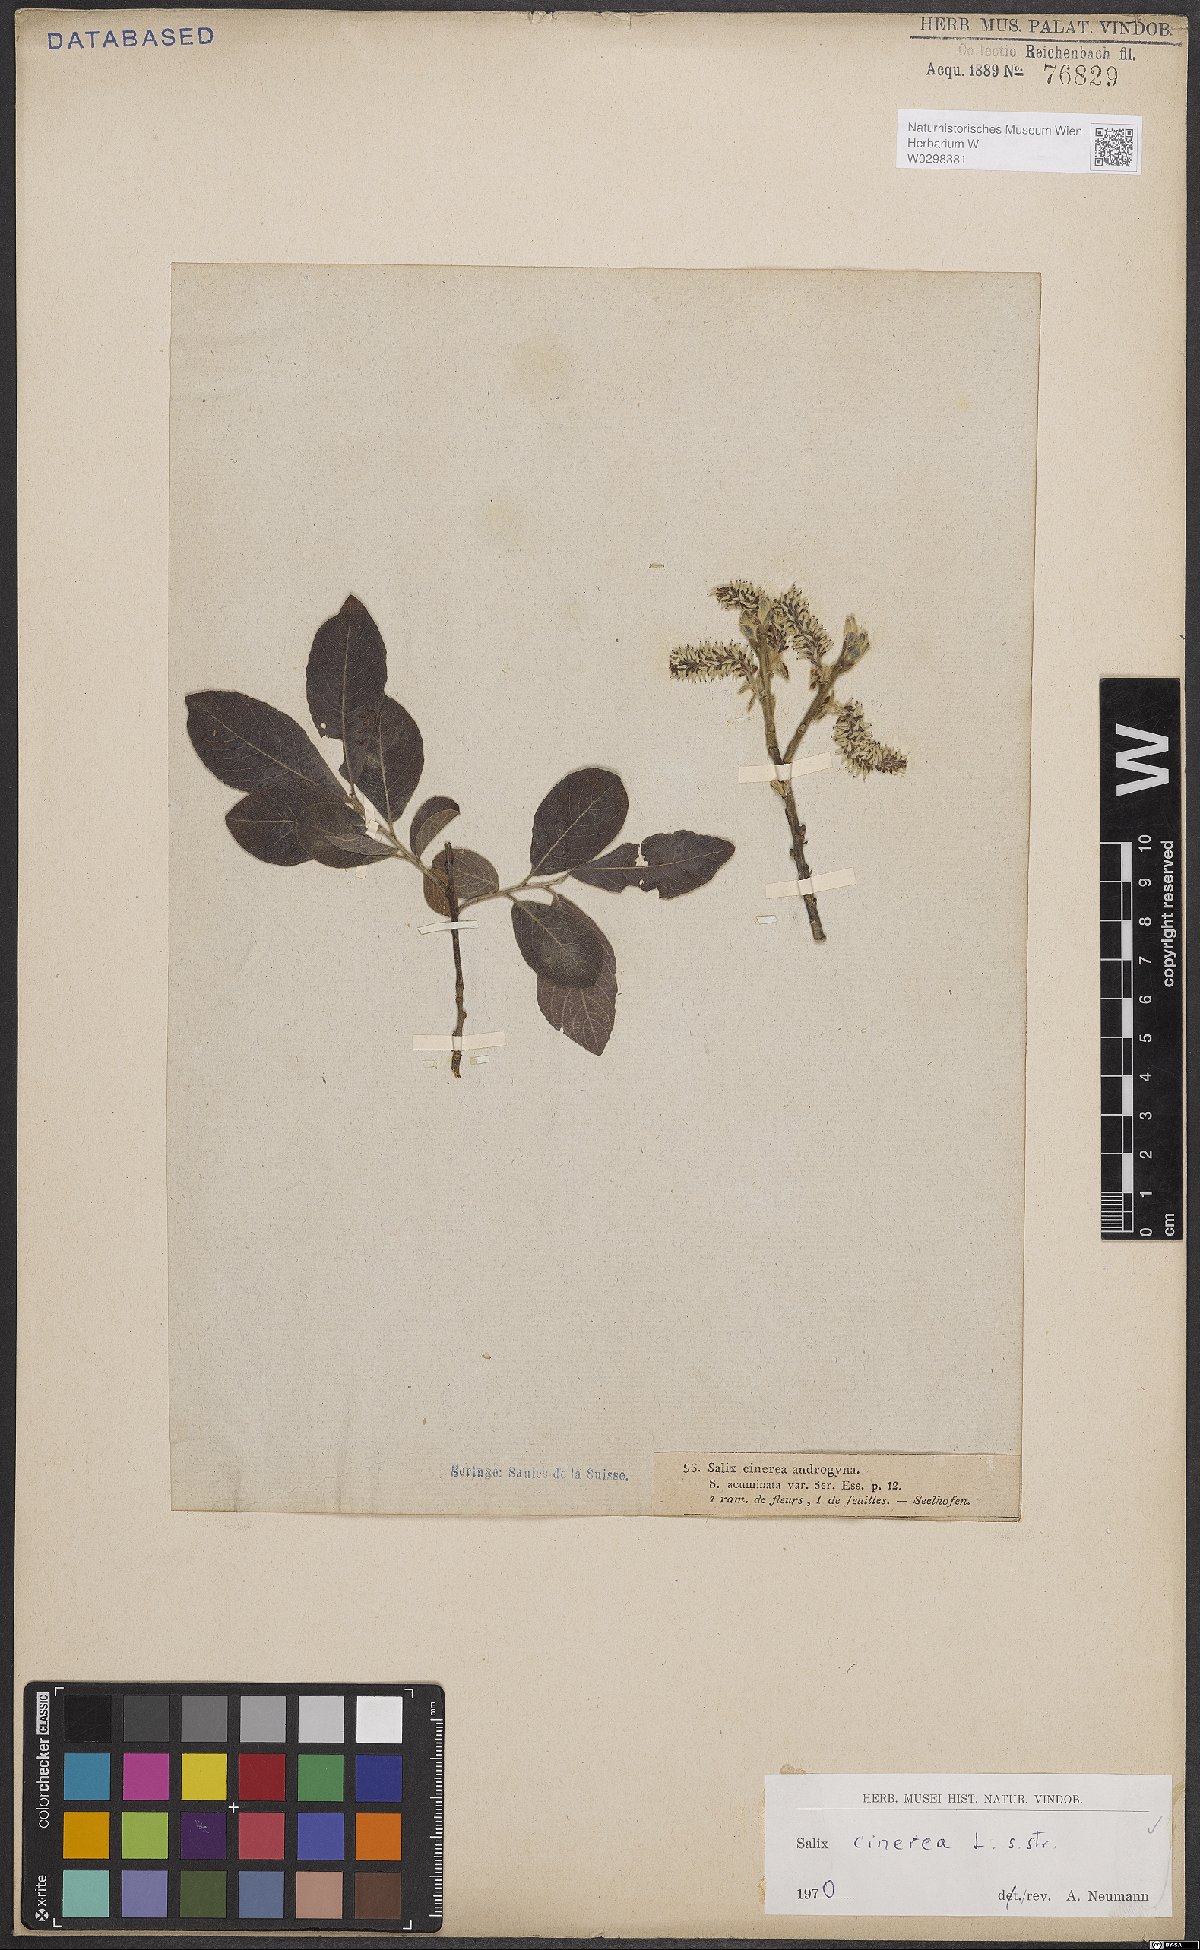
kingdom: Plantae
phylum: Tracheophyta
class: Magnoliopsida
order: Malpighiales
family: Salicaceae
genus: Salix
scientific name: Salix cinerea
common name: Common sallow
